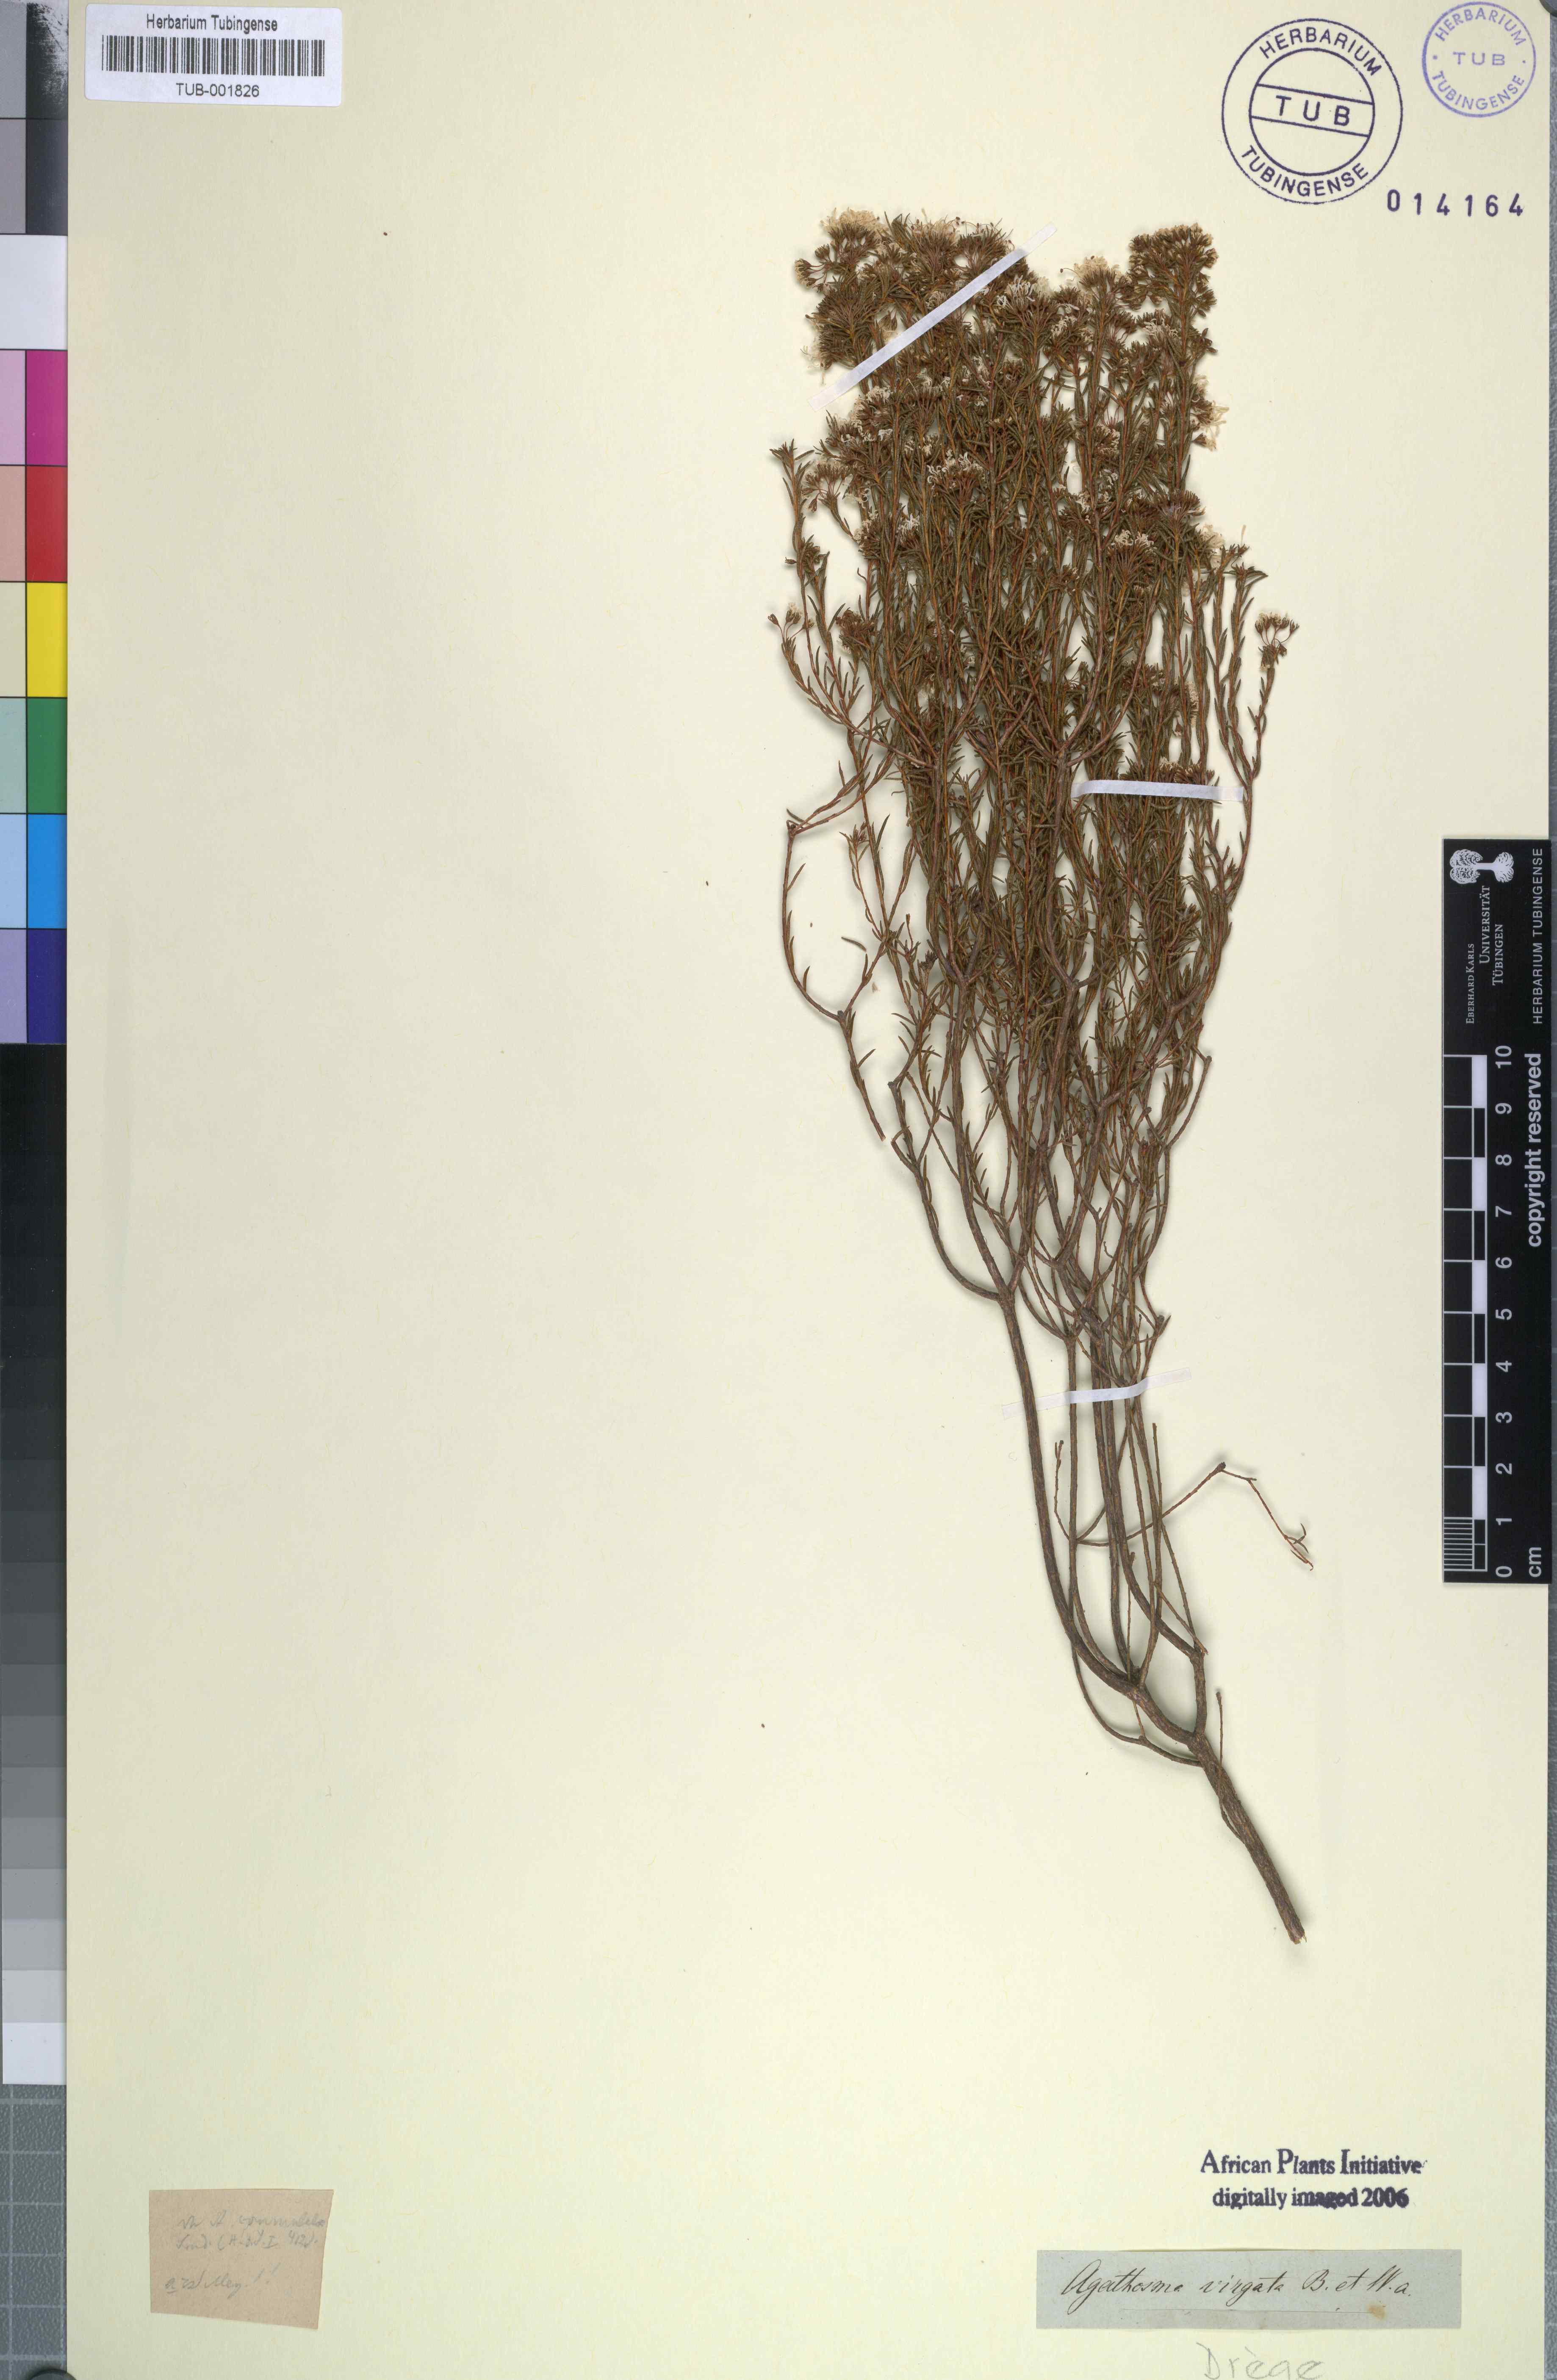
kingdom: Plantae
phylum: Tracheophyta
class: Magnoliopsida
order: Sapindales
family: Rutaceae
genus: Agathosma
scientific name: Agathosma virgata
